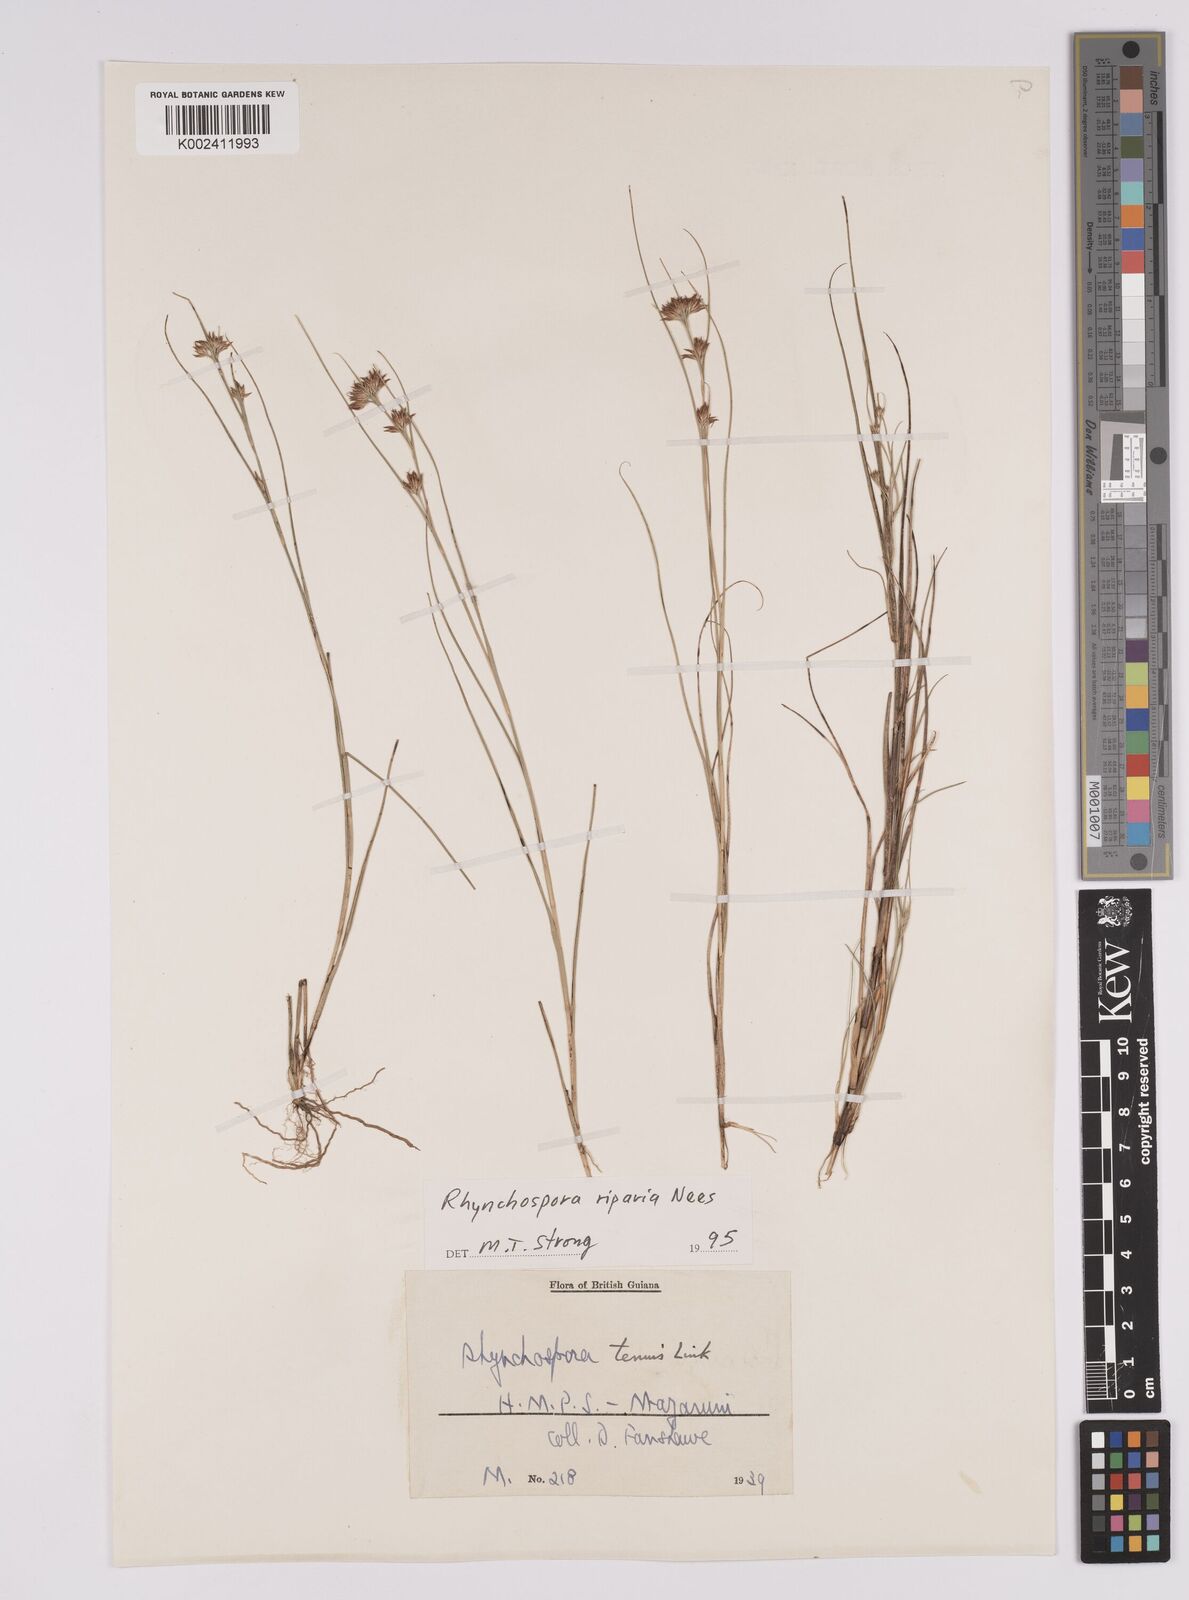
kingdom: Plantae
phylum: Tracheophyta
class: Liliopsida
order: Poales
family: Cyperaceae
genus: Rhynchospora
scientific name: Rhynchospora riparia
